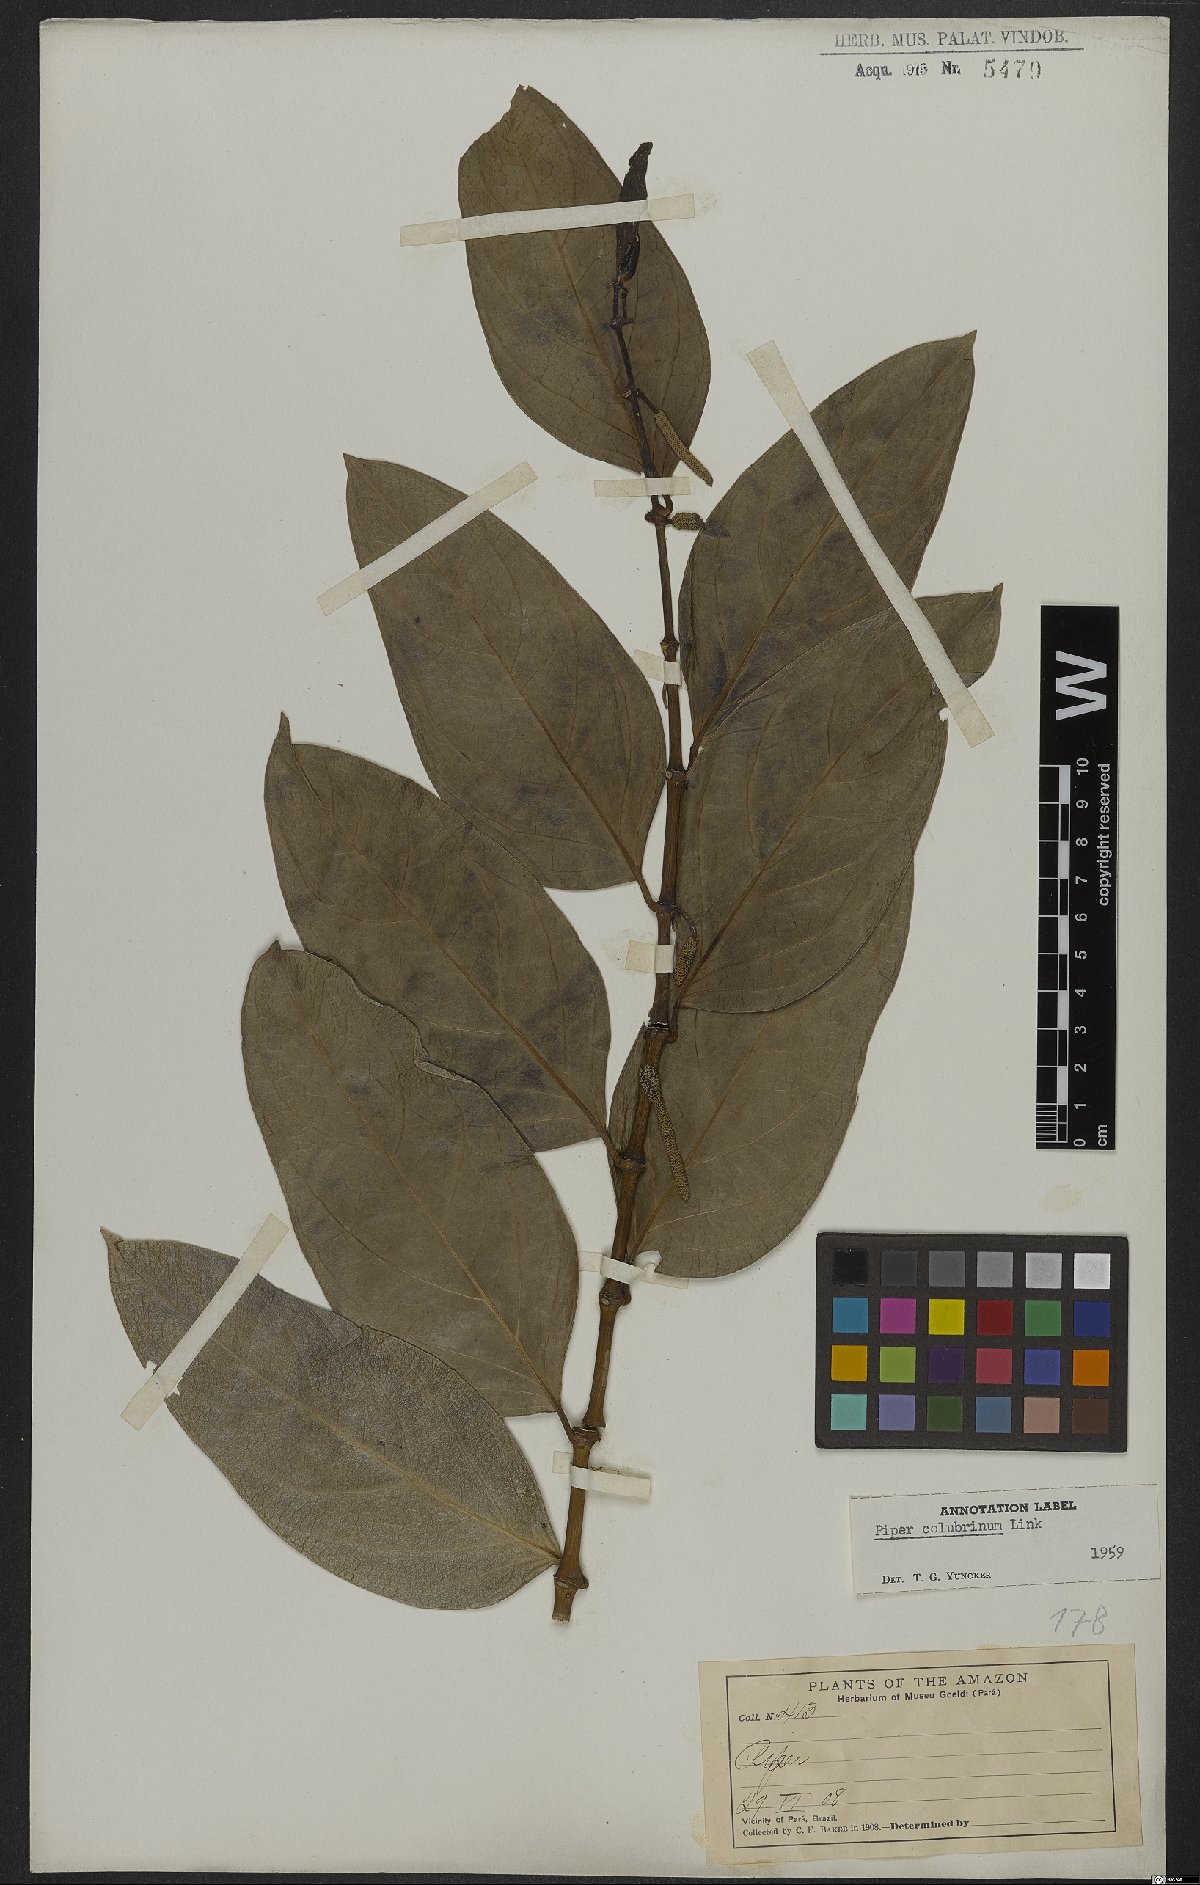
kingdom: Plantae
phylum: Tracheophyta
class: Magnoliopsida
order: Piperales
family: Piperaceae
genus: Piper
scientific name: Piper colubrinum
